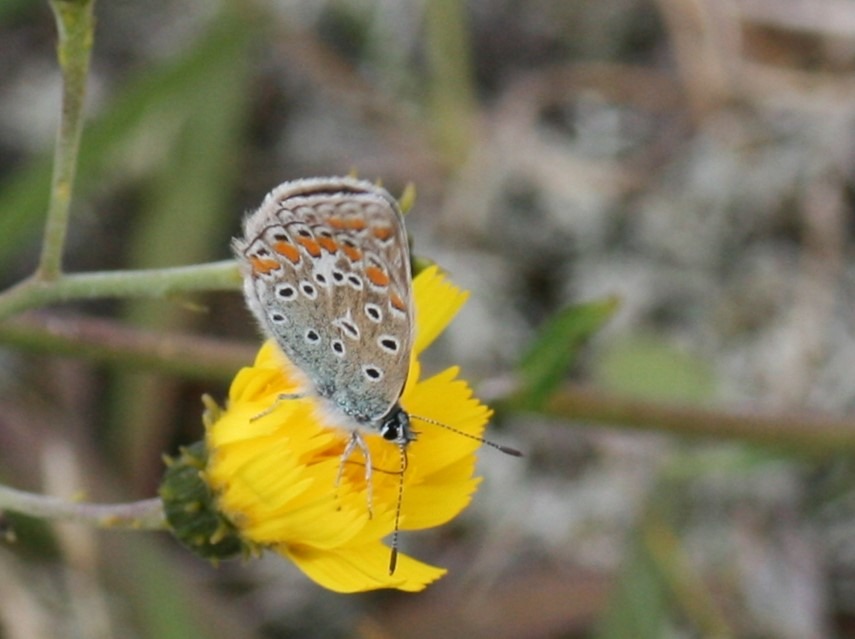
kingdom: Animalia
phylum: Arthropoda
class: Insecta
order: Lepidoptera
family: Lycaenidae
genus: Polyommatus
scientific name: Polyommatus icarus
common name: Almindelig blåfugl
